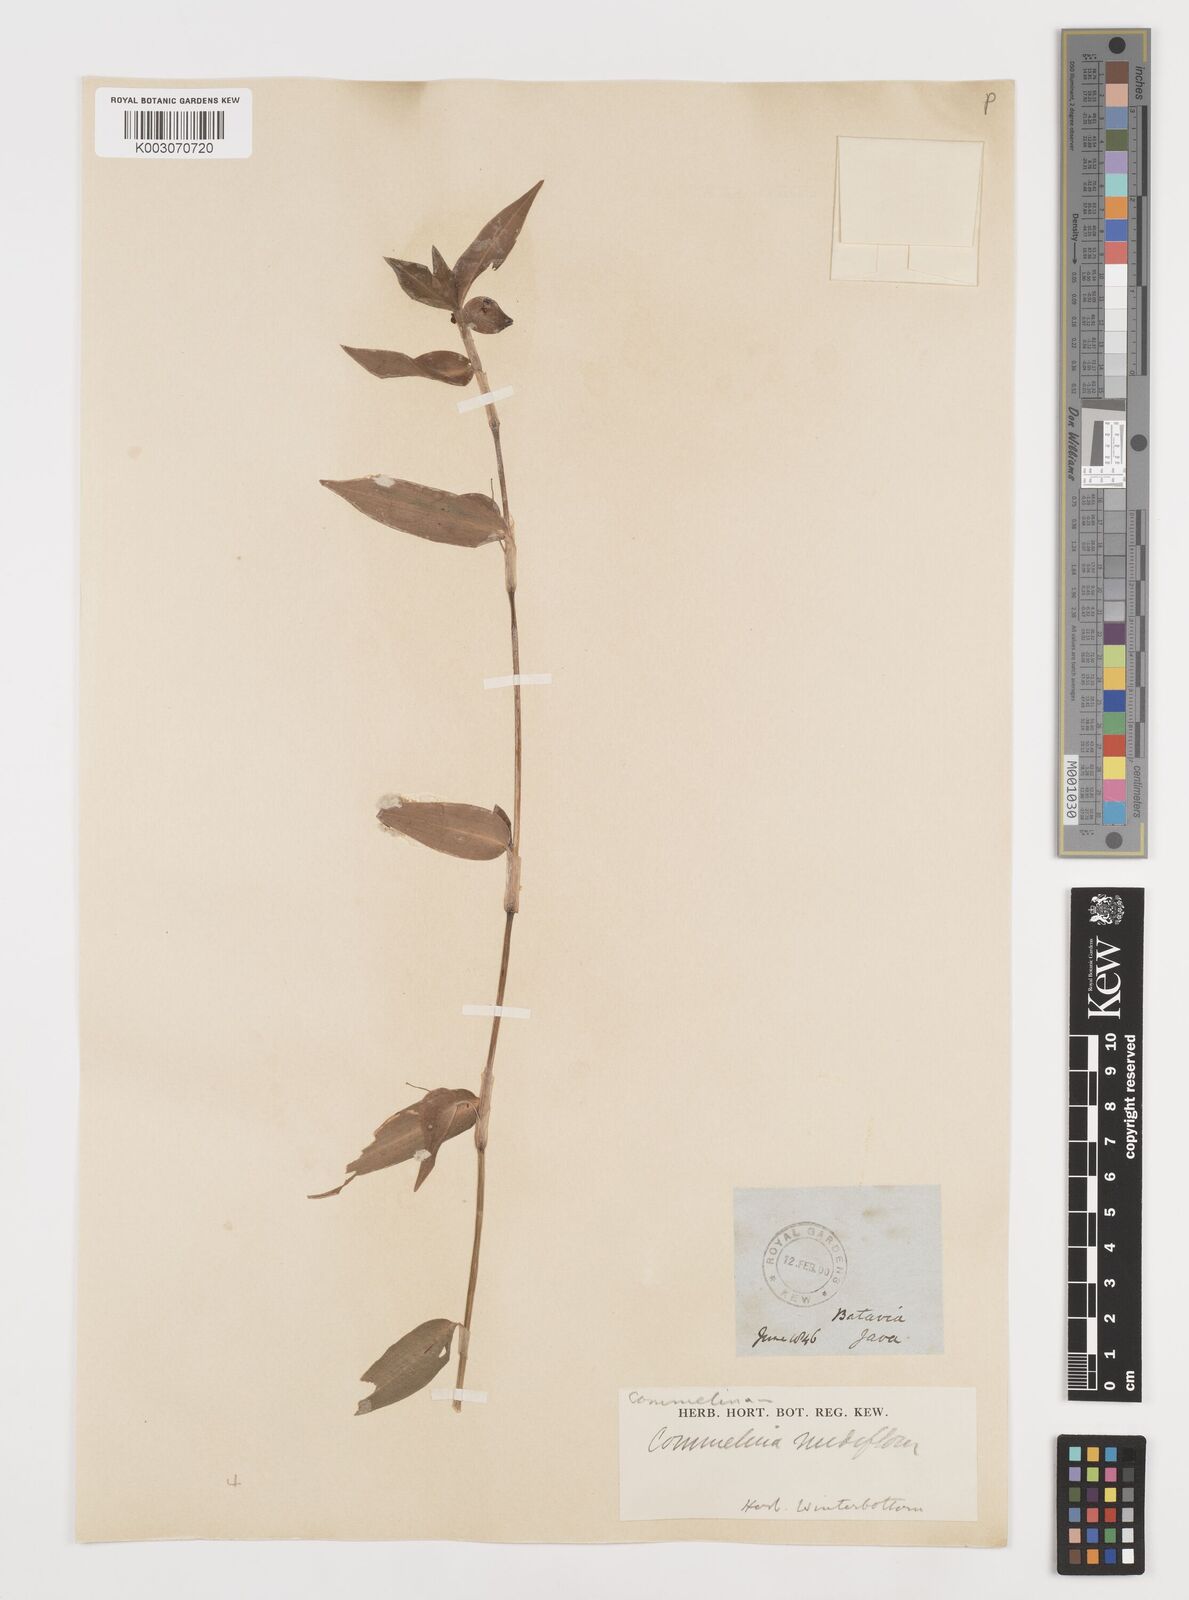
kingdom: Plantae
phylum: Tracheophyta
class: Liliopsida
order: Commelinales
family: Commelinaceae
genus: Commelina
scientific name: Commelina clavata
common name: Willow leaved dayflower
